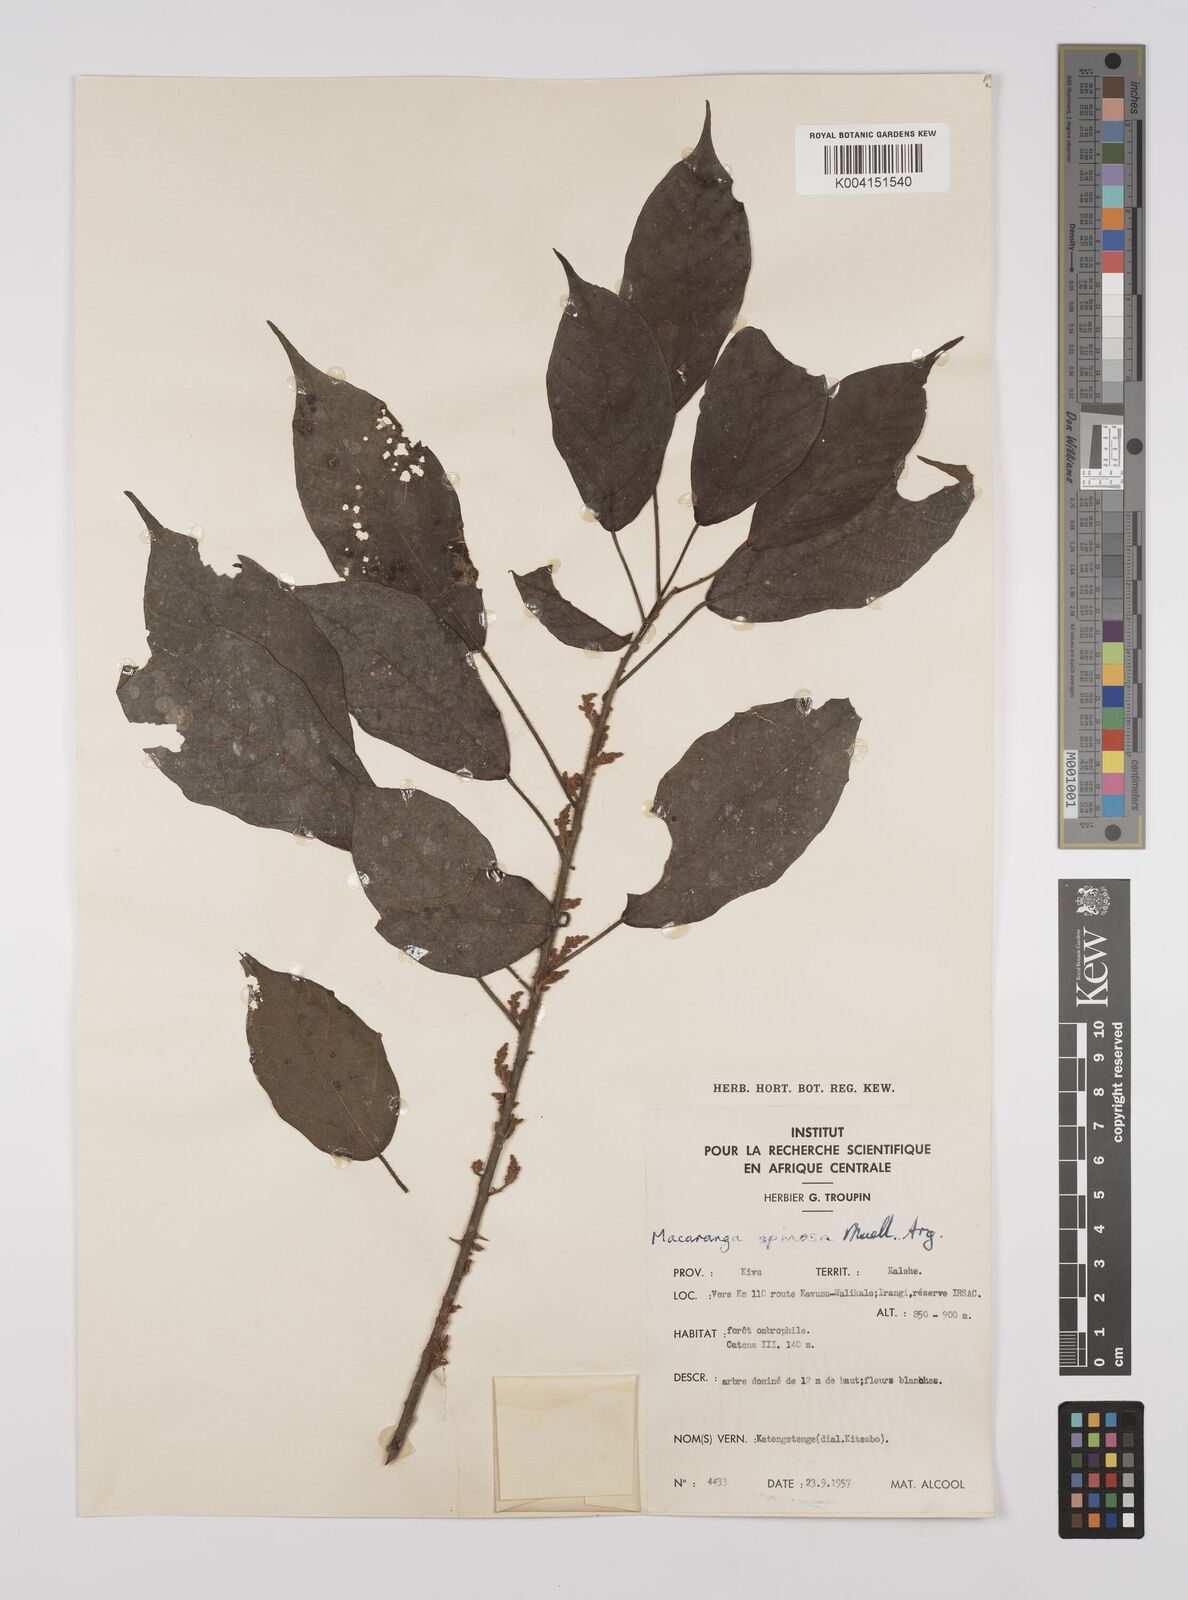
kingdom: Plantae
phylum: Tracheophyta
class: Magnoliopsida
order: Malpighiales
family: Euphorbiaceae
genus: Macaranga
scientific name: Macaranga spinosa
